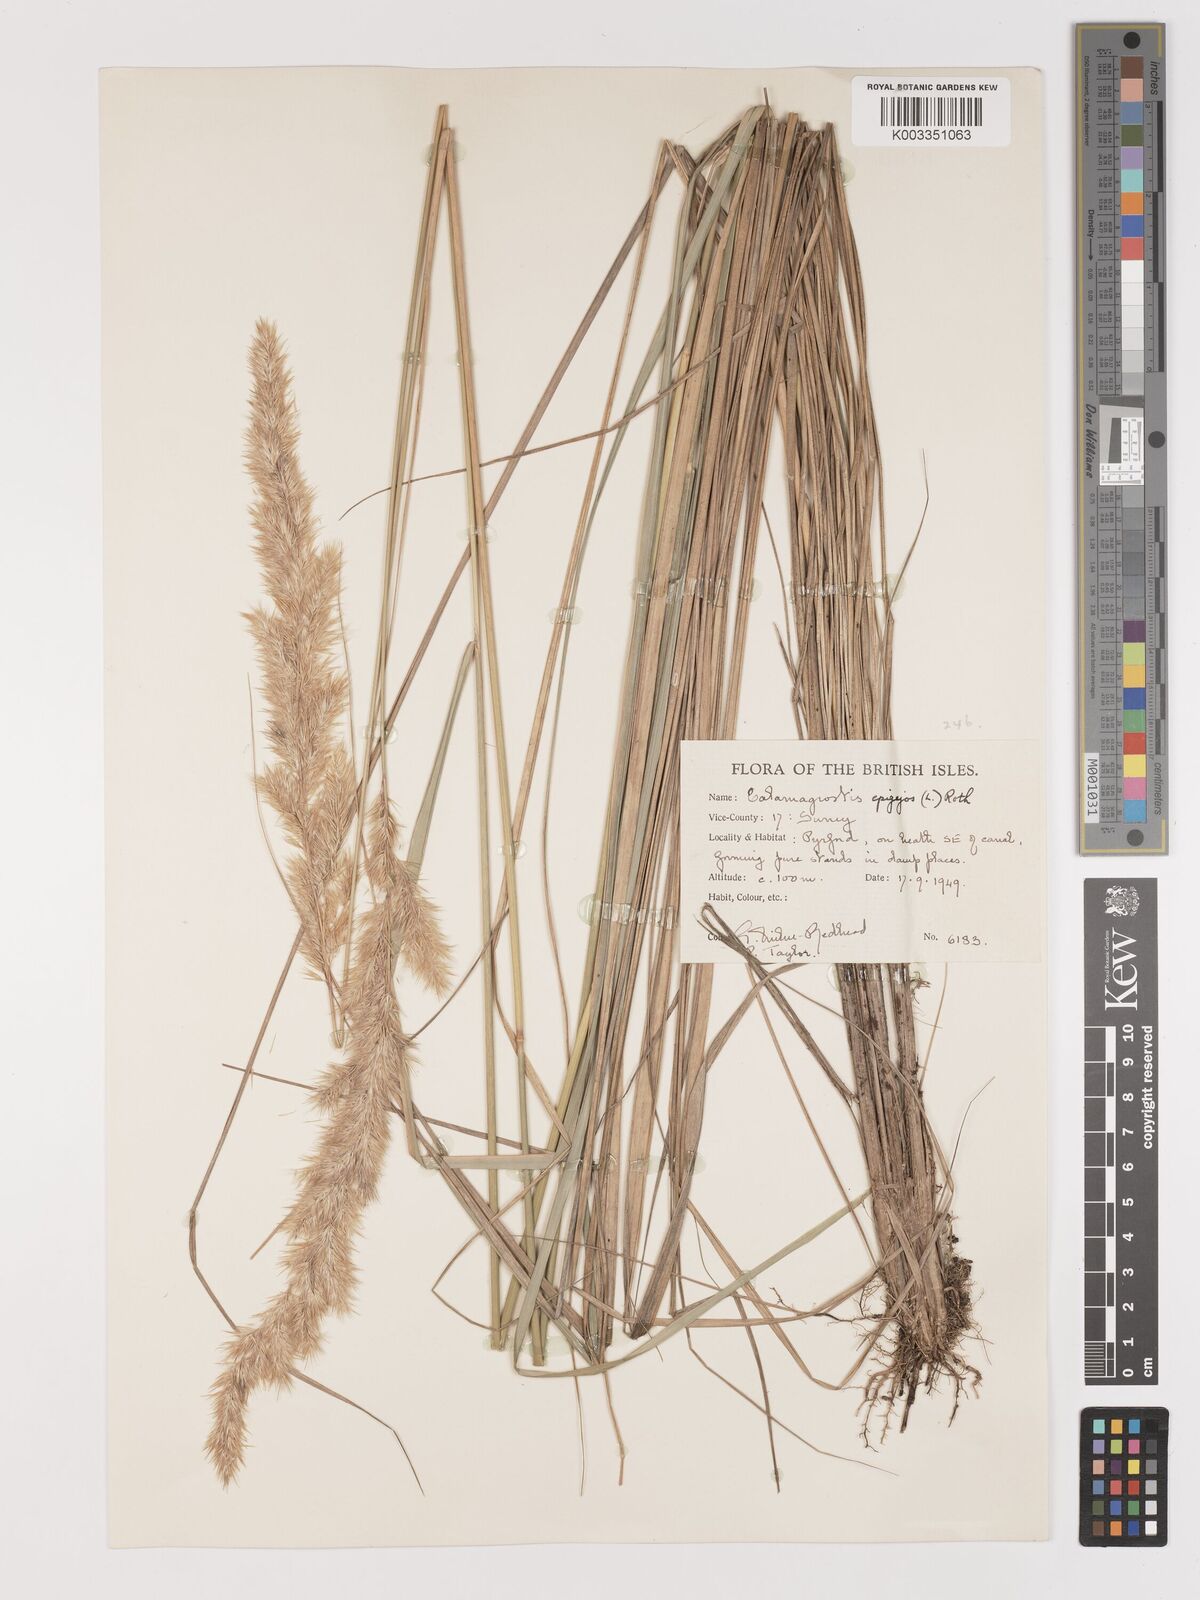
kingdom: Plantae
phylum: Tracheophyta
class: Liliopsida
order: Poales
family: Poaceae
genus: Calamagrostis
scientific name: Calamagrostis epigejos
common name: Wood small-reed
